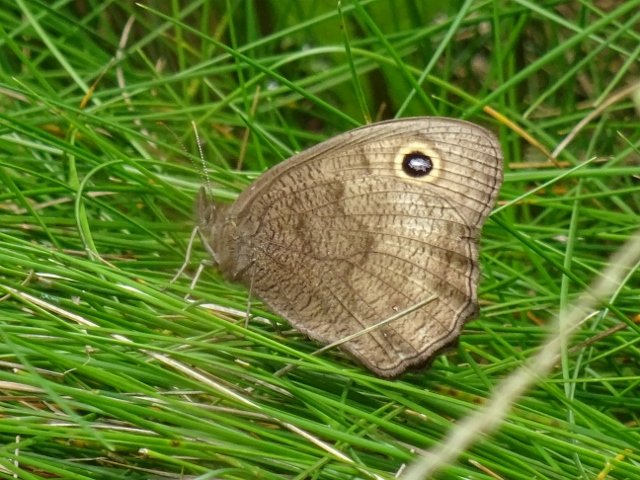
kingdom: Animalia
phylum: Arthropoda
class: Insecta
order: Lepidoptera
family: Nymphalidae
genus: Cercyonis
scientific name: Cercyonis pegala
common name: Common Wood-Nymph
